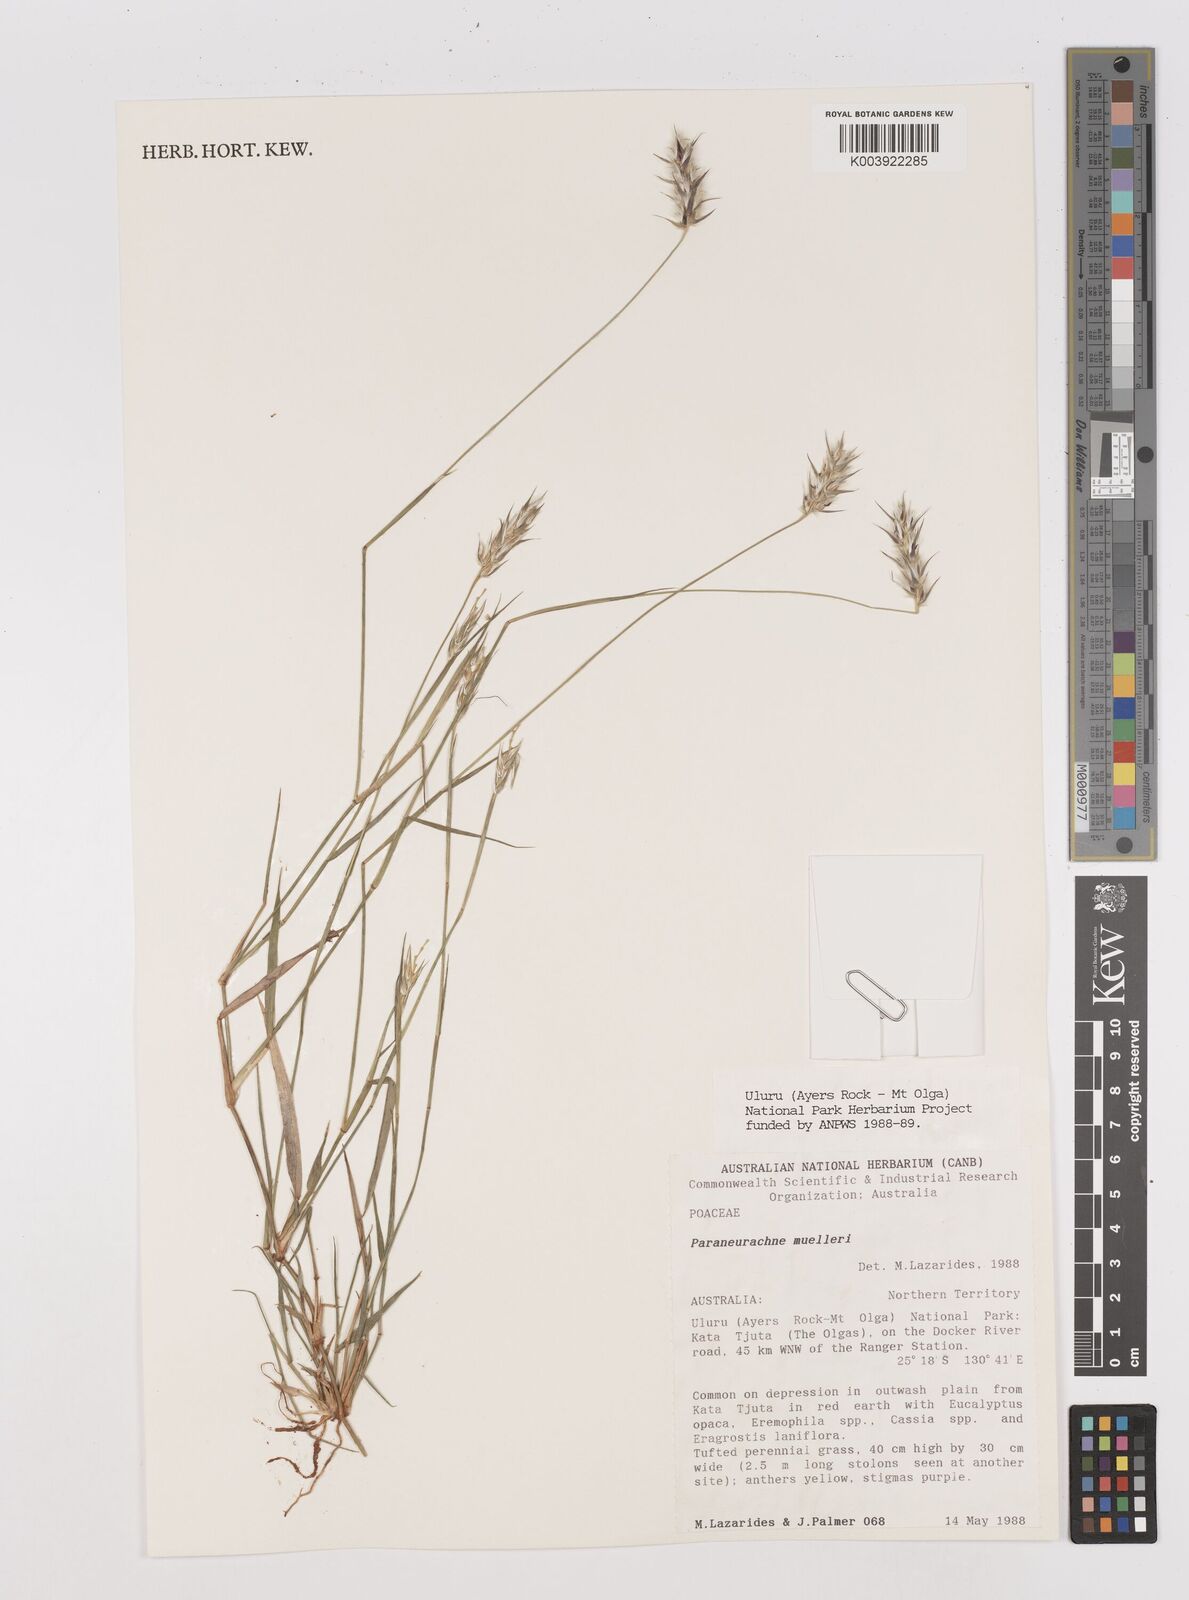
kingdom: Plantae
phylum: Tracheophyta
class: Liliopsida
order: Poales
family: Poaceae
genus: Neurachne
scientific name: Neurachne muelleri
